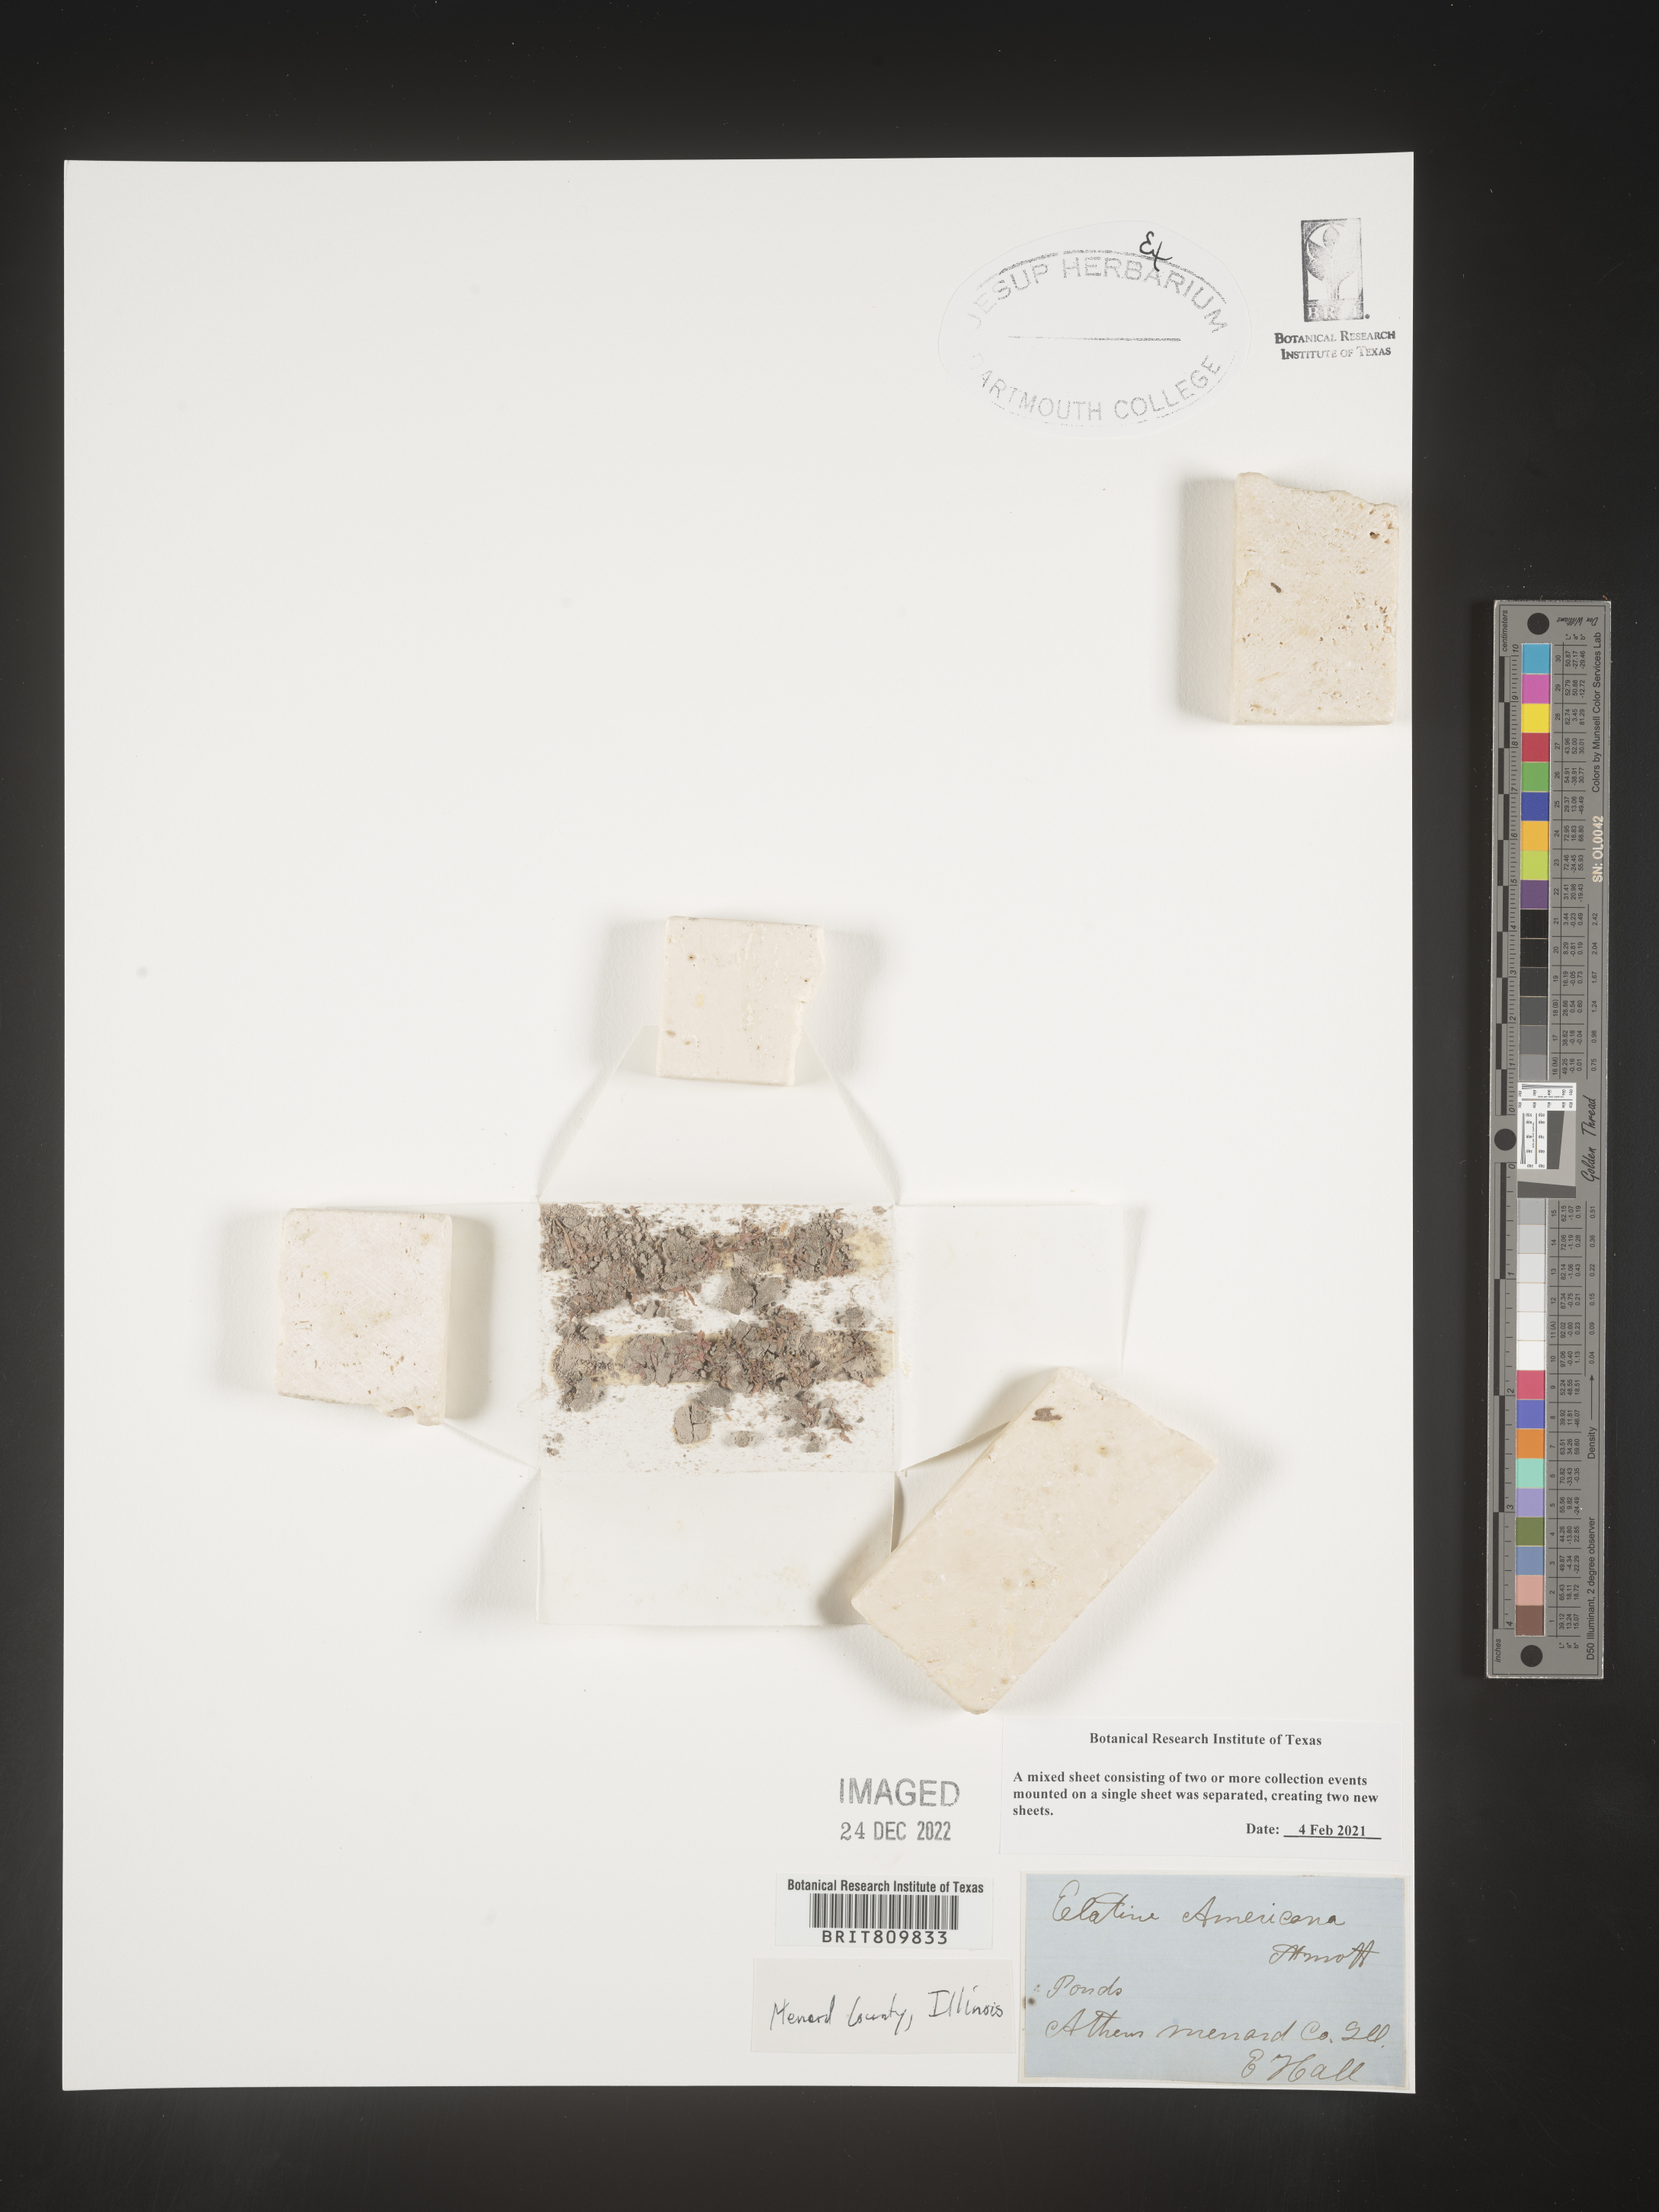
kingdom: Plantae
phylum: Tracheophyta
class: Magnoliopsida
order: Malpighiales
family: Elatinaceae
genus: Elatine
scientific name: Elatine
